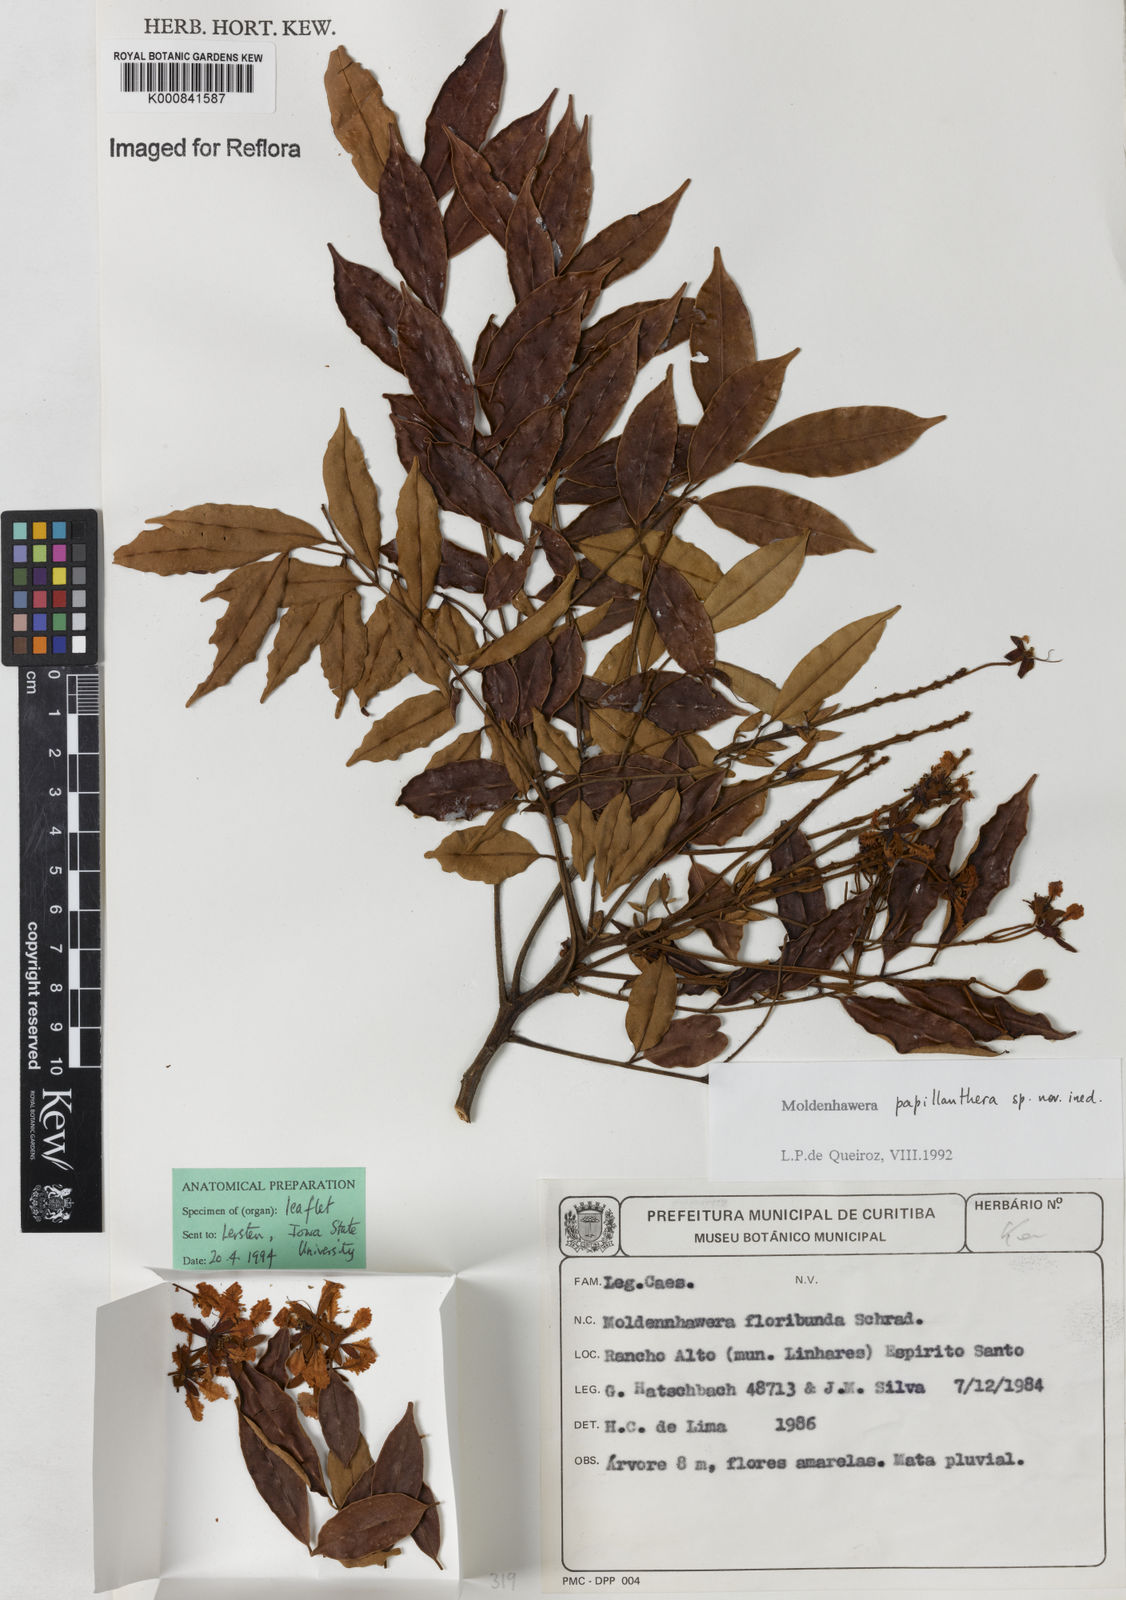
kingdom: Plantae
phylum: Tracheophyta
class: Magnoliopsida
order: Fabales
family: Fabaceae
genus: Moldenhawera
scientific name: Moldenhawera
